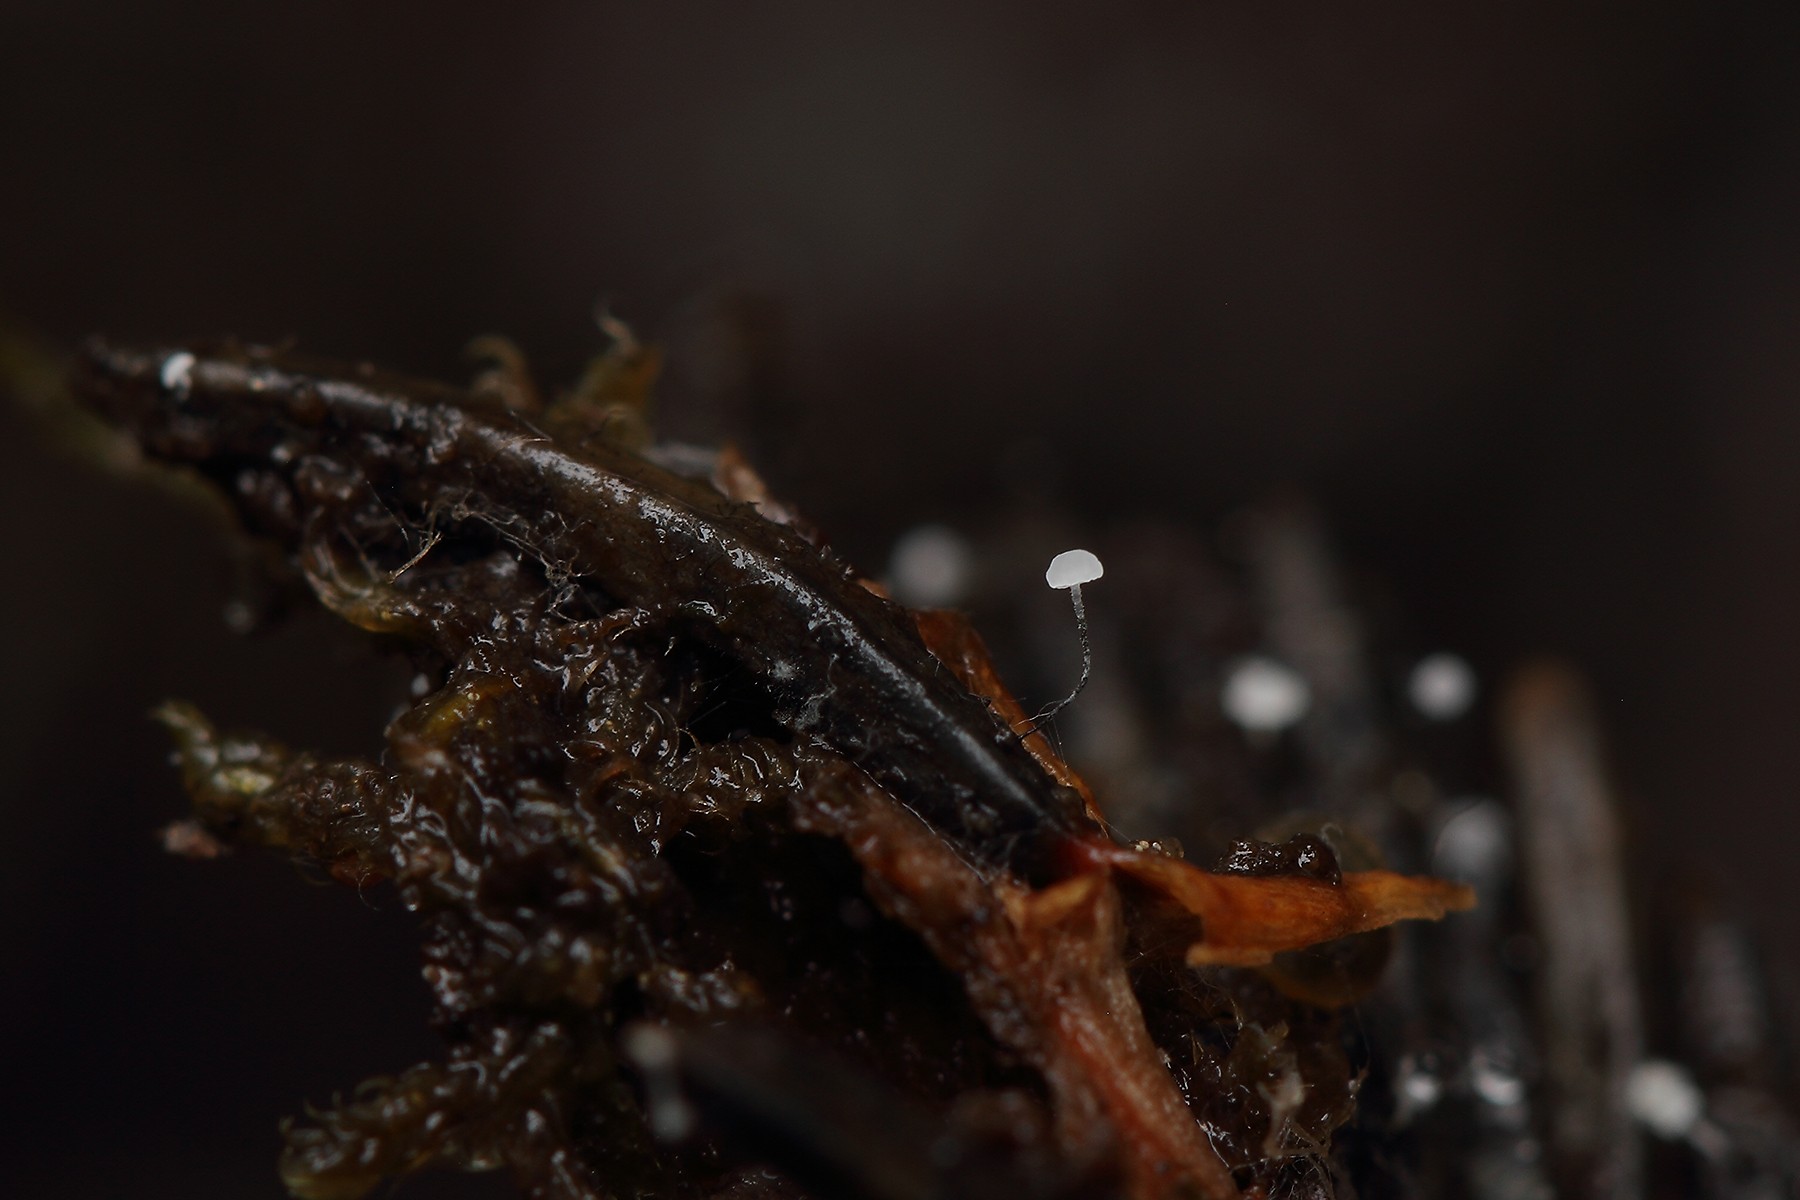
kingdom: Fungi
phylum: Ascomycota
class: Leotiomycetes
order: Helotiales
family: Gelatinodiscaceae
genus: Ombrophila
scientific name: Ombrophila juniperinella
